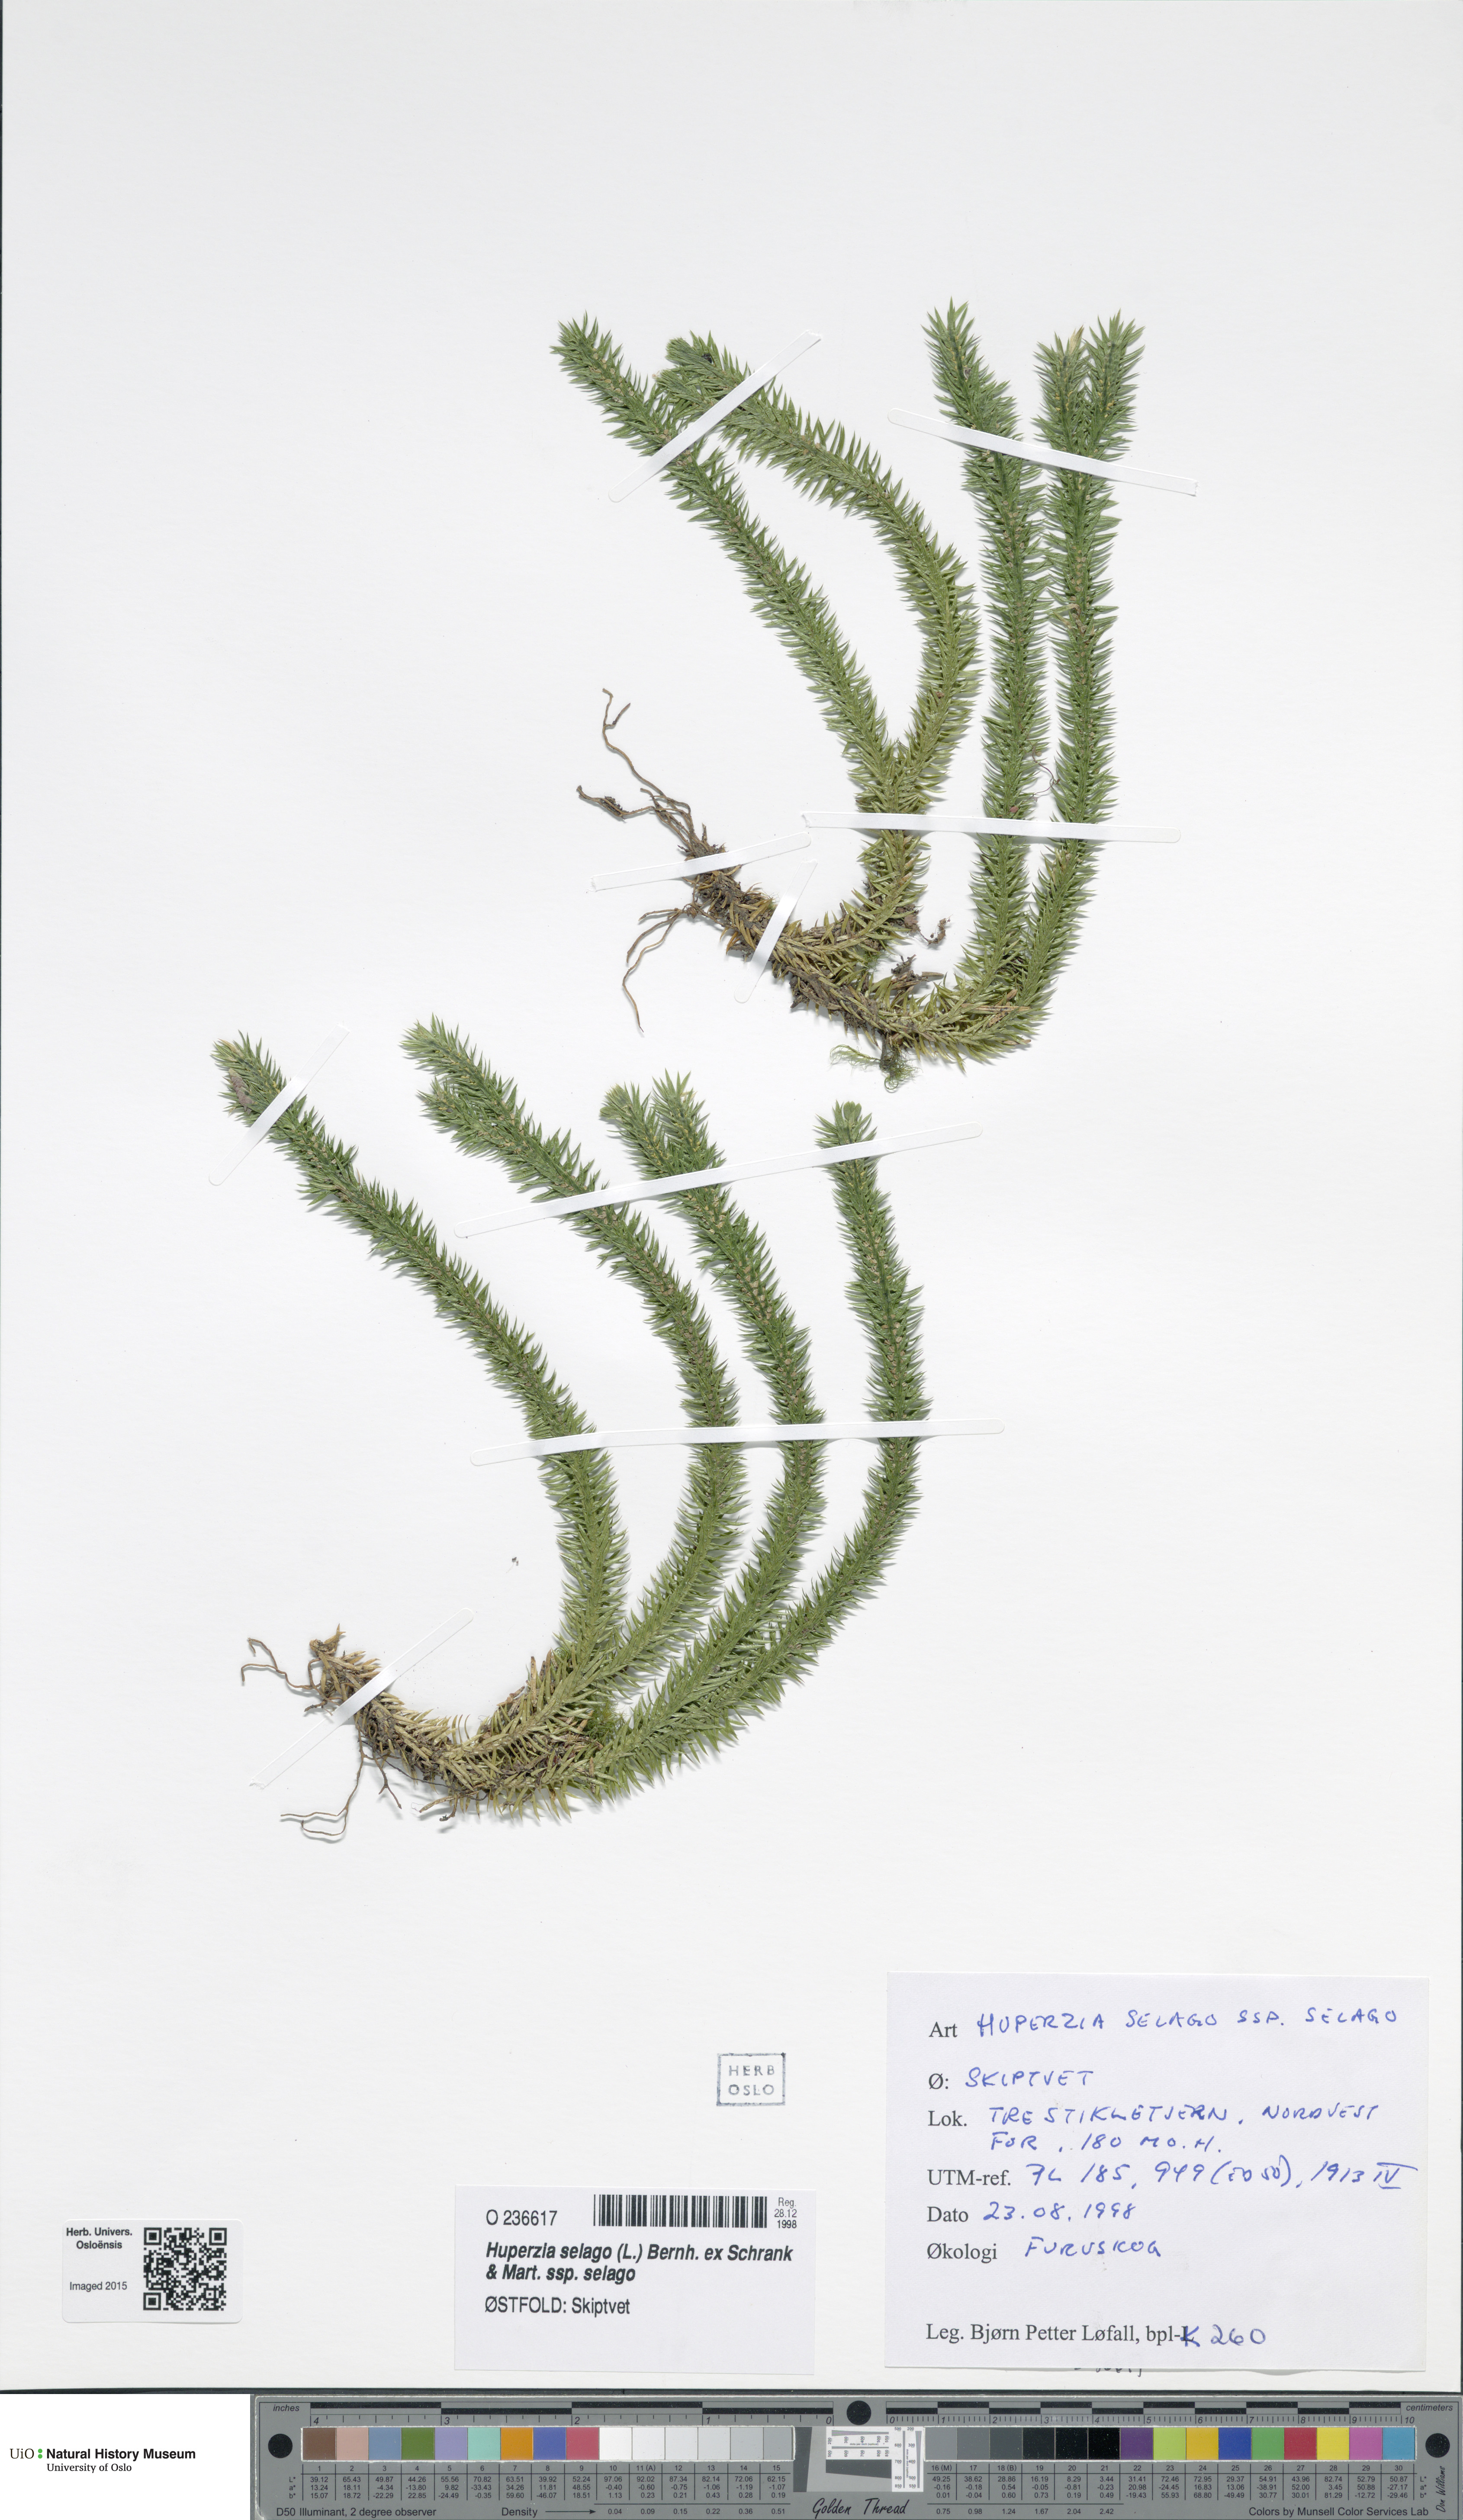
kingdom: Plantae
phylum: Tracheophyta
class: Lycopodiopsida
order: Lycopodiales
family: Lycopodiaceae
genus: Huperzia
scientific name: Huperzia selago
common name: Northern firmoss
